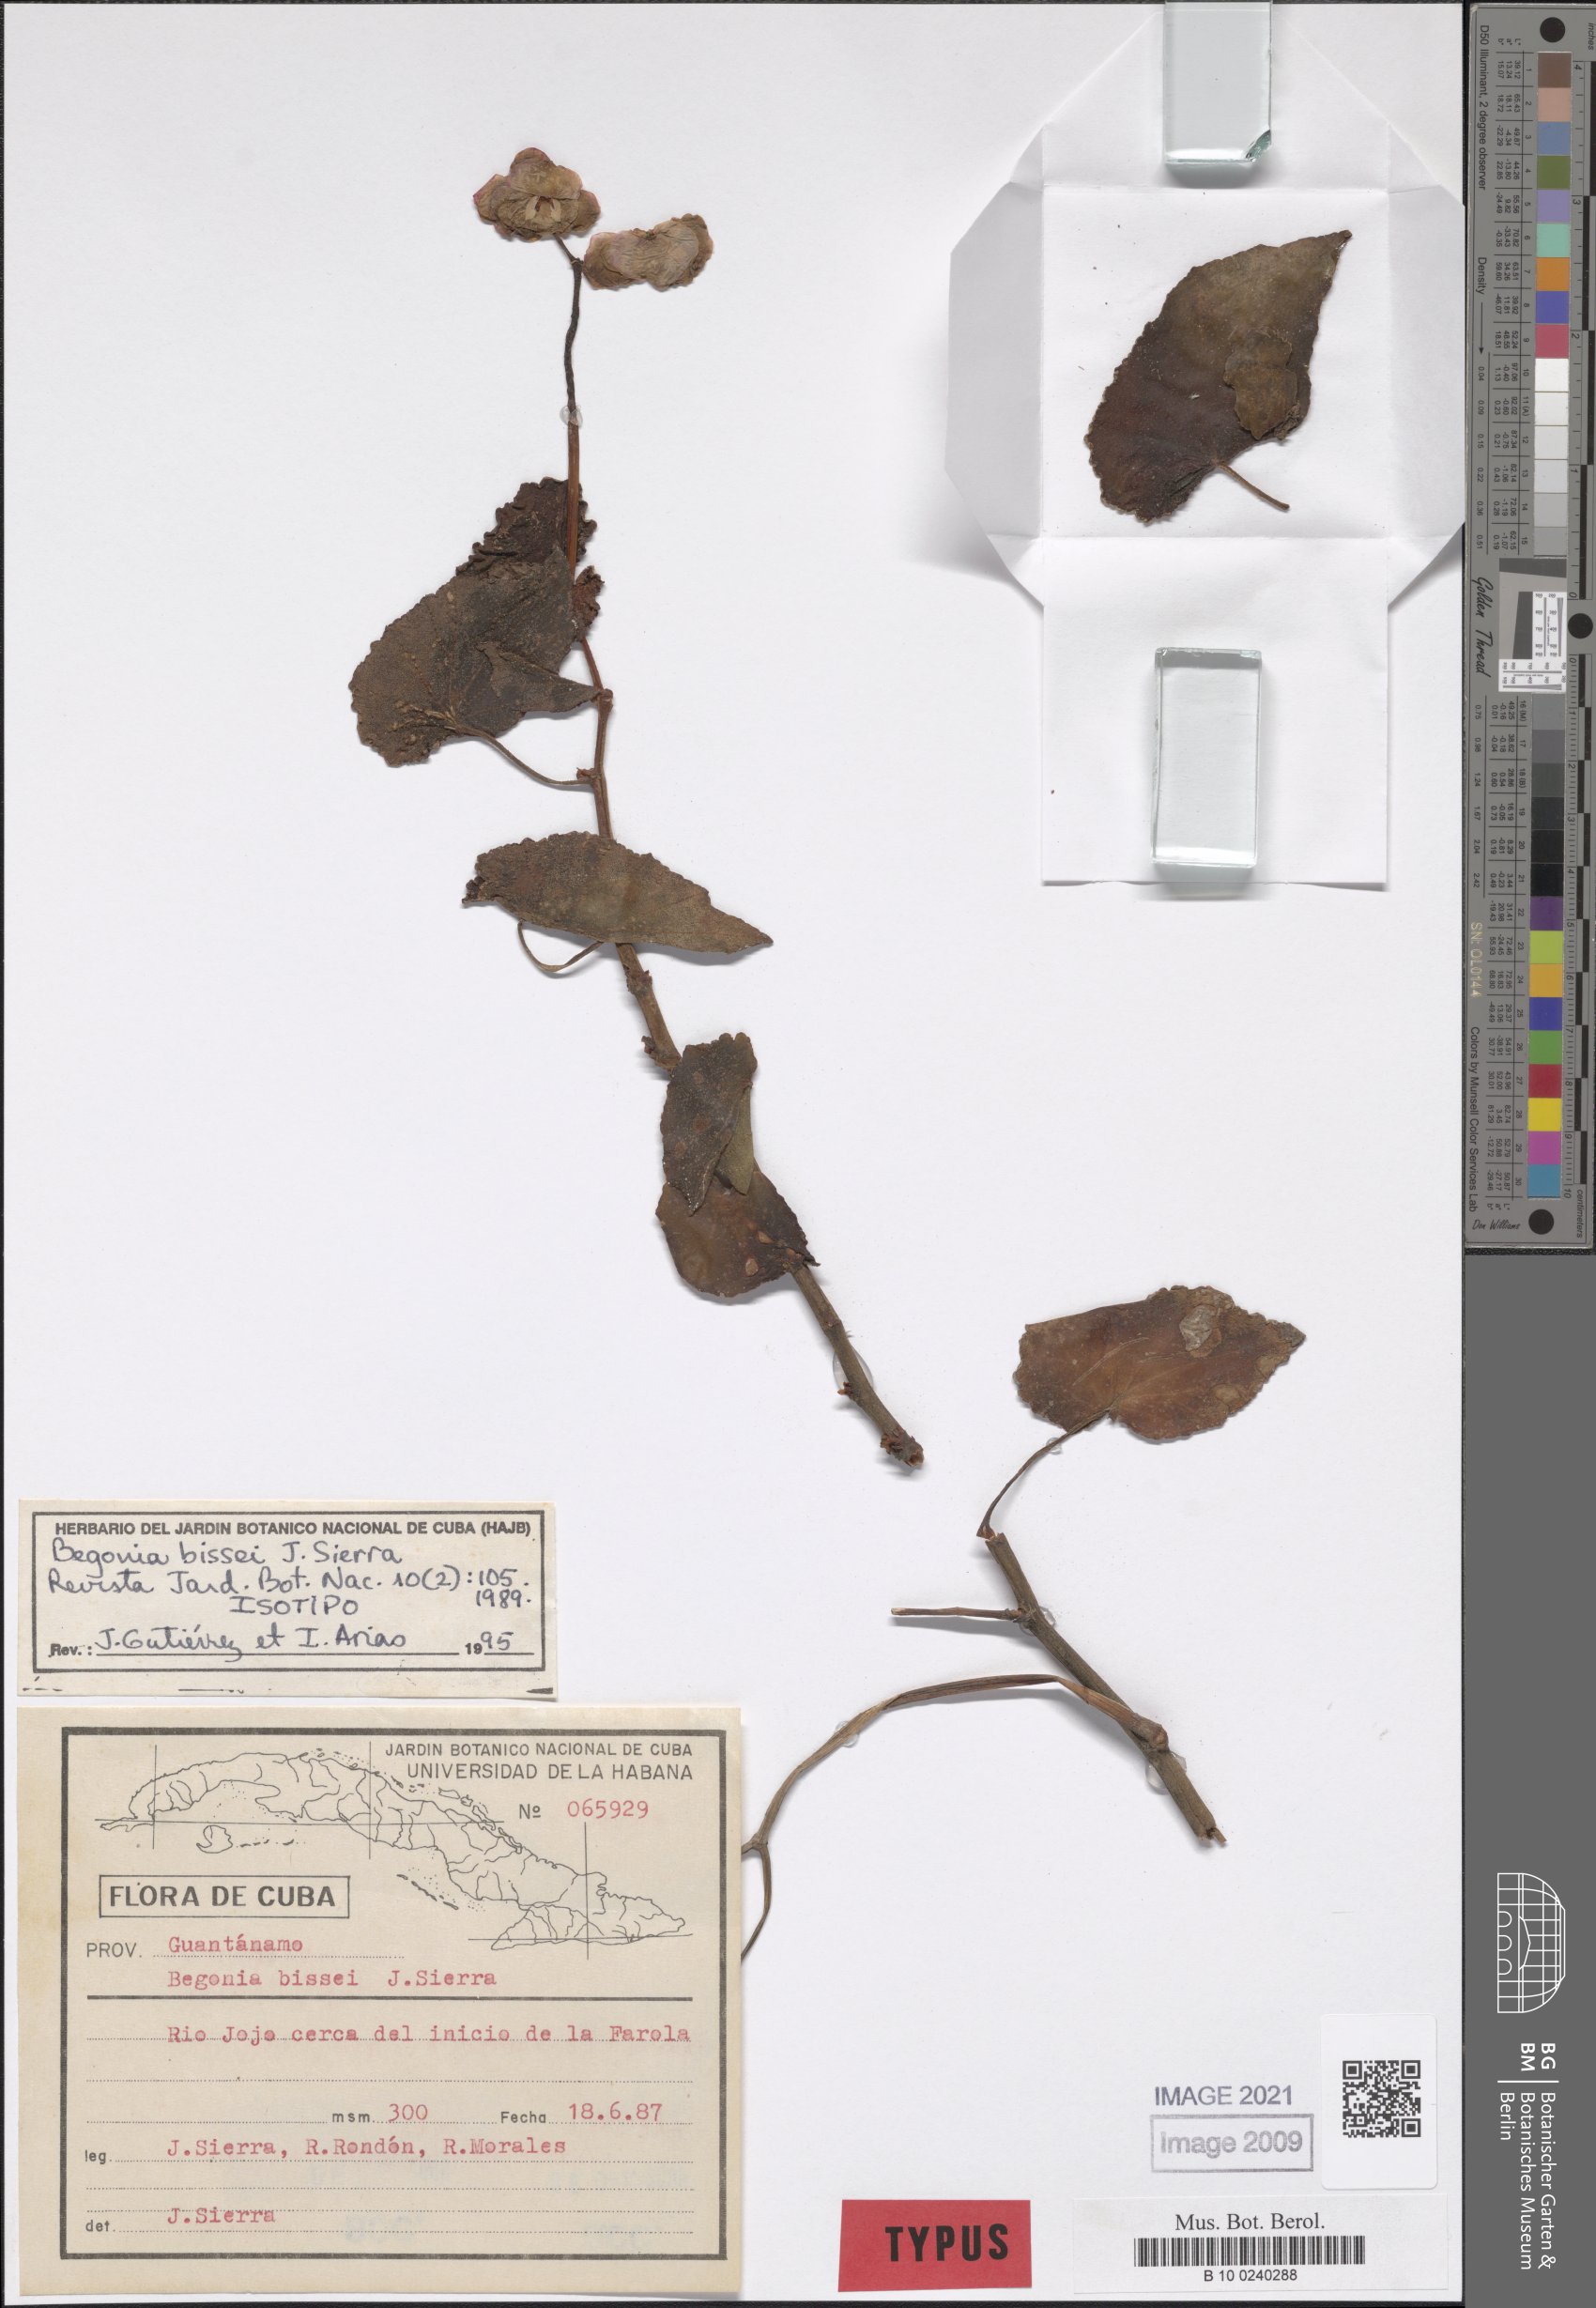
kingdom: Plantae
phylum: Tracheophyta
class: Magnoliopsida
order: Cucurbitales
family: Begoniaceae
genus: Begonia
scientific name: Begonia bissei
